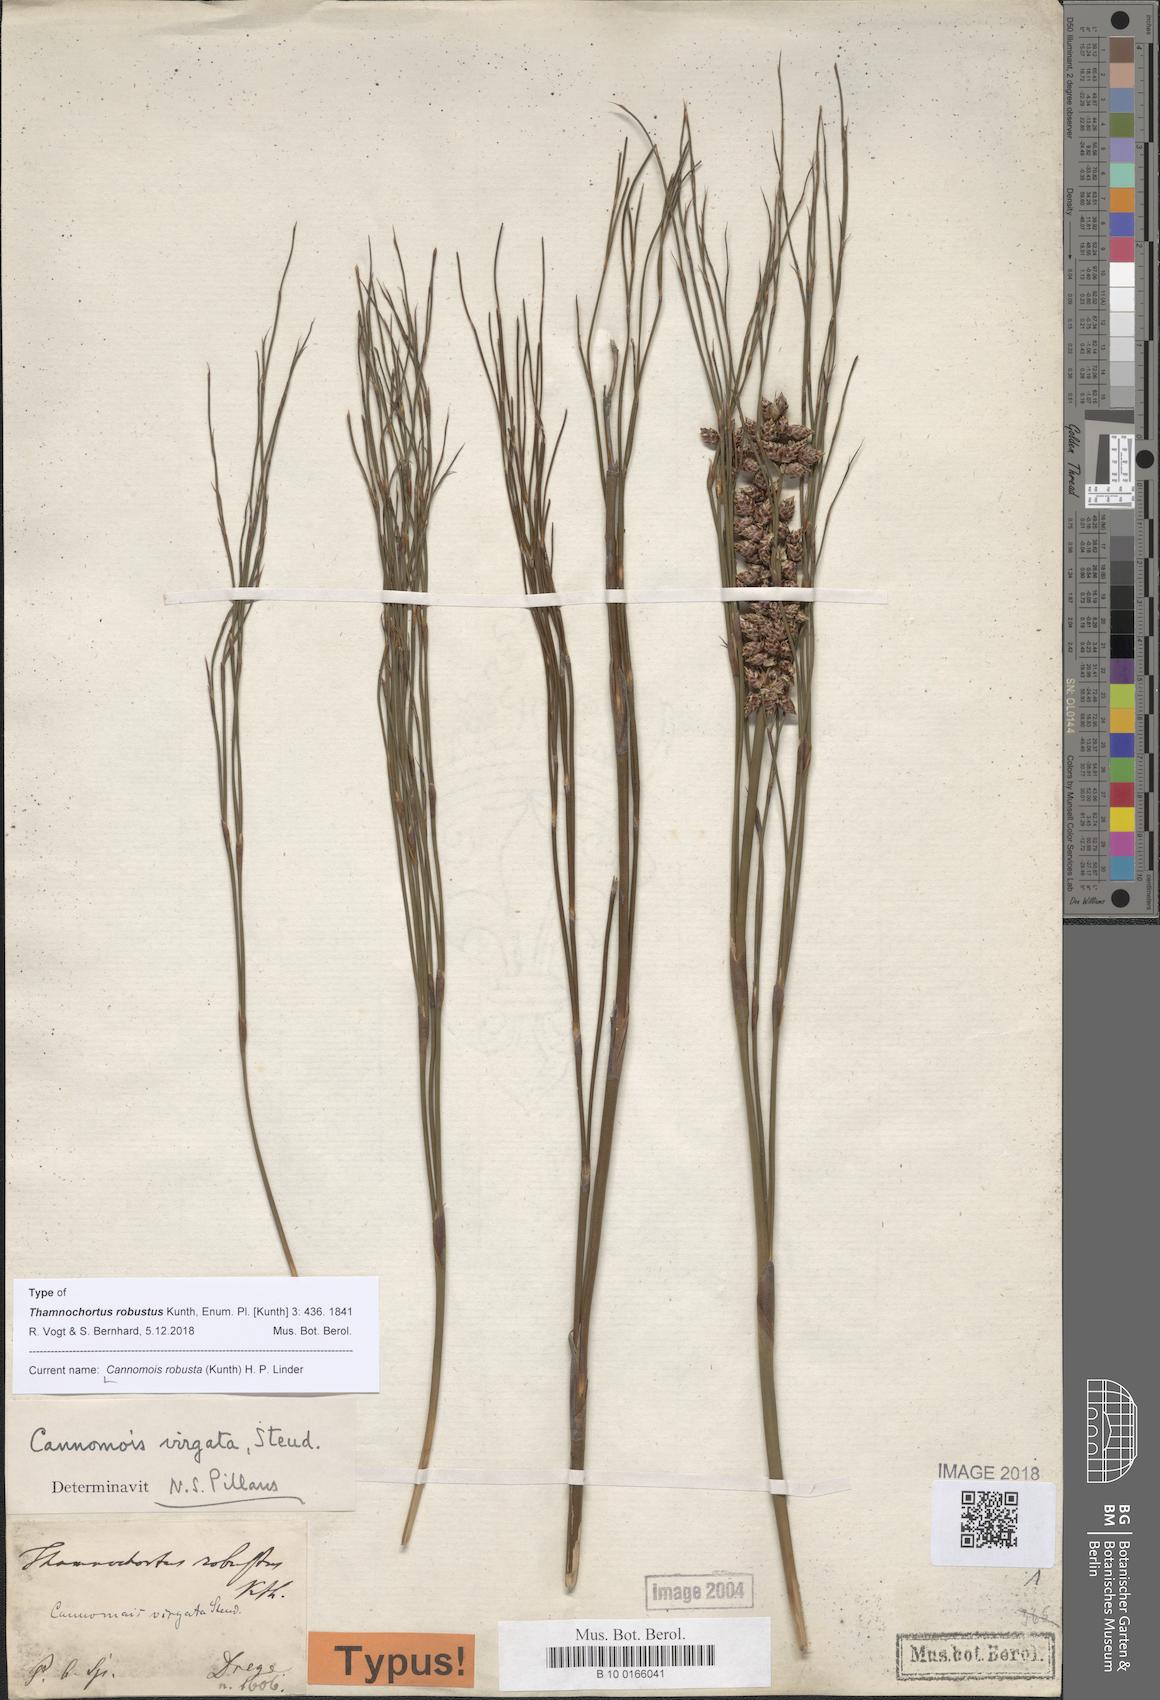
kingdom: Plantae
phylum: Tracheophyta
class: Liliopsida
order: Poales
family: Restionaceae
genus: Cannomois
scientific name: Cannomois robusta
